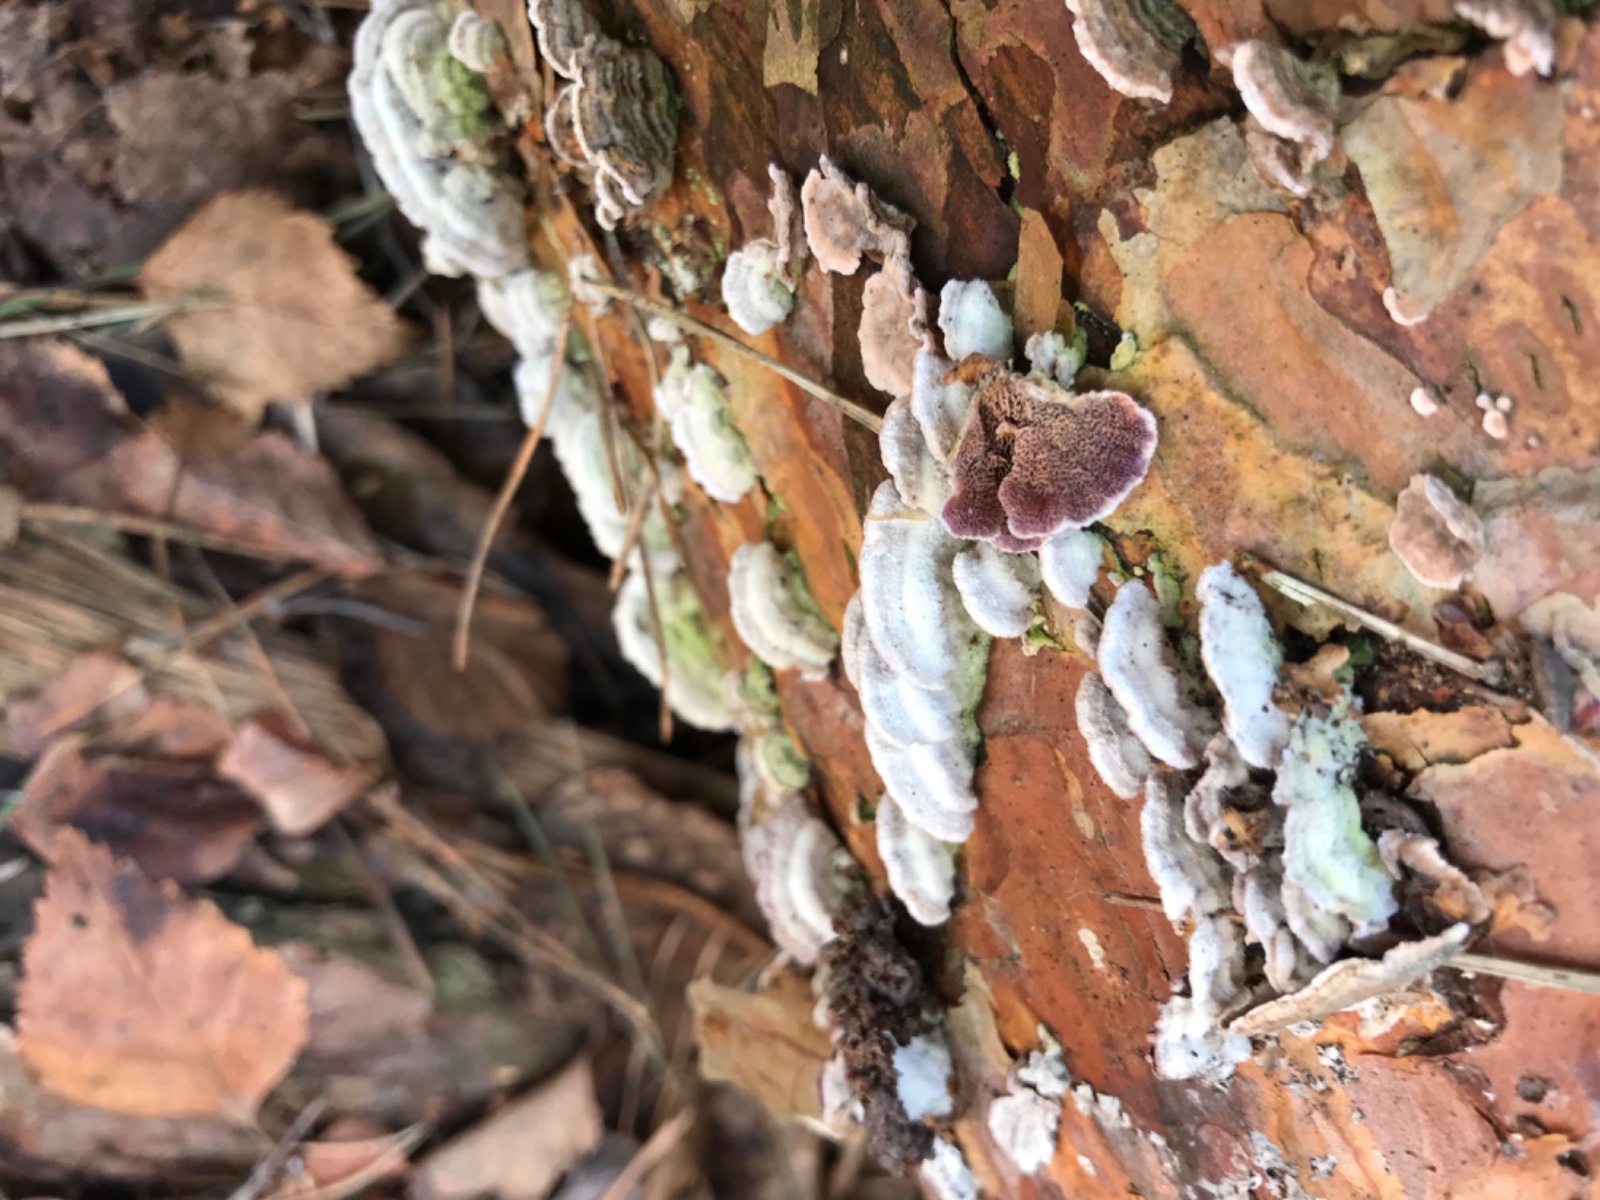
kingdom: Fungi
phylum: Basidiomycota
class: Agaricomycetes
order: Hymenochaetales
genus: Trichaptum
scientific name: Trichaptum fuscoviolaceum
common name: tandet violporesvamp
